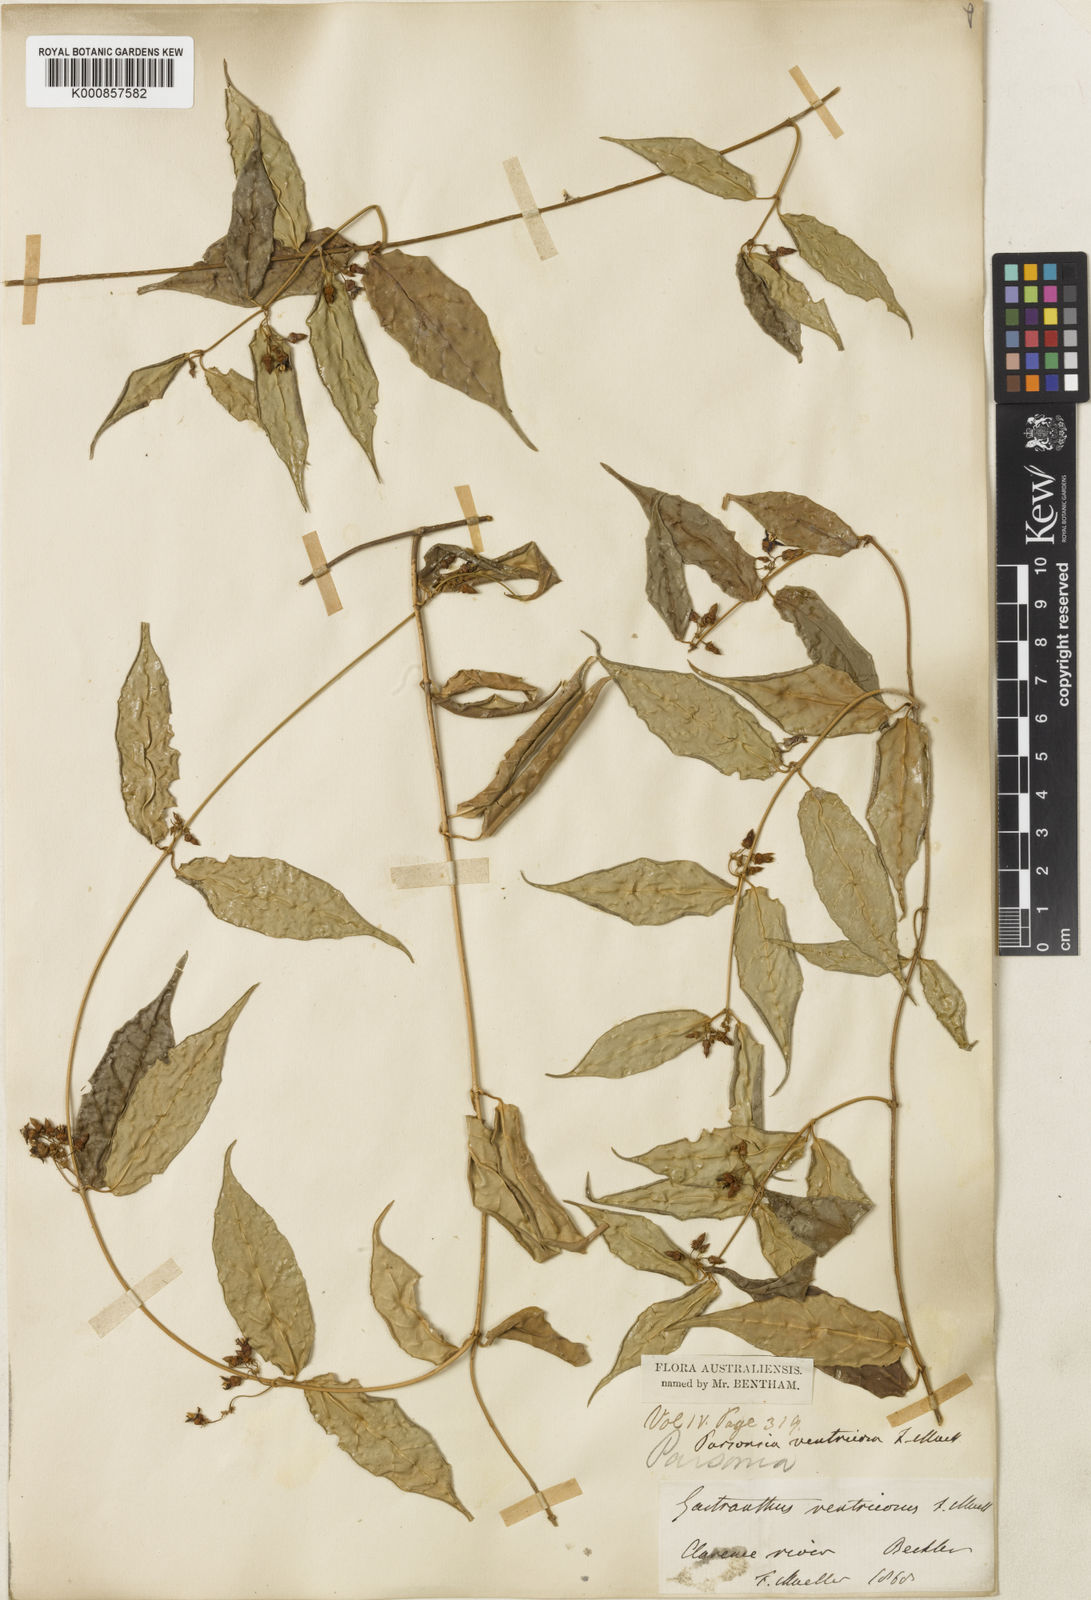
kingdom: Plantae
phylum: Tracheophyta
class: Magnoliopsida
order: Gentianales
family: Apocynaceae
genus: Parsonsia
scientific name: Parsonsia ventricosa
